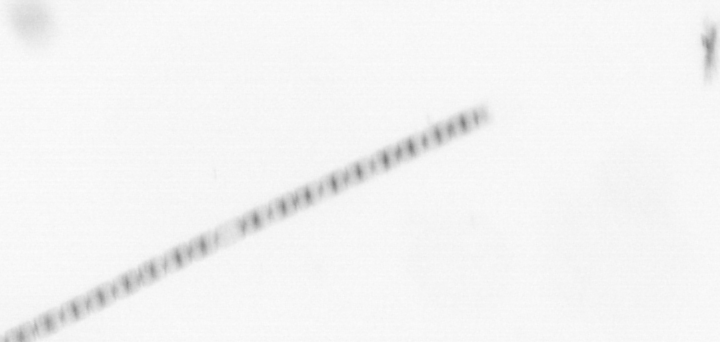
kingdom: Chromista
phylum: Ochrophyta
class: Bacillariophyceae
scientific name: Bacillariophyceae
